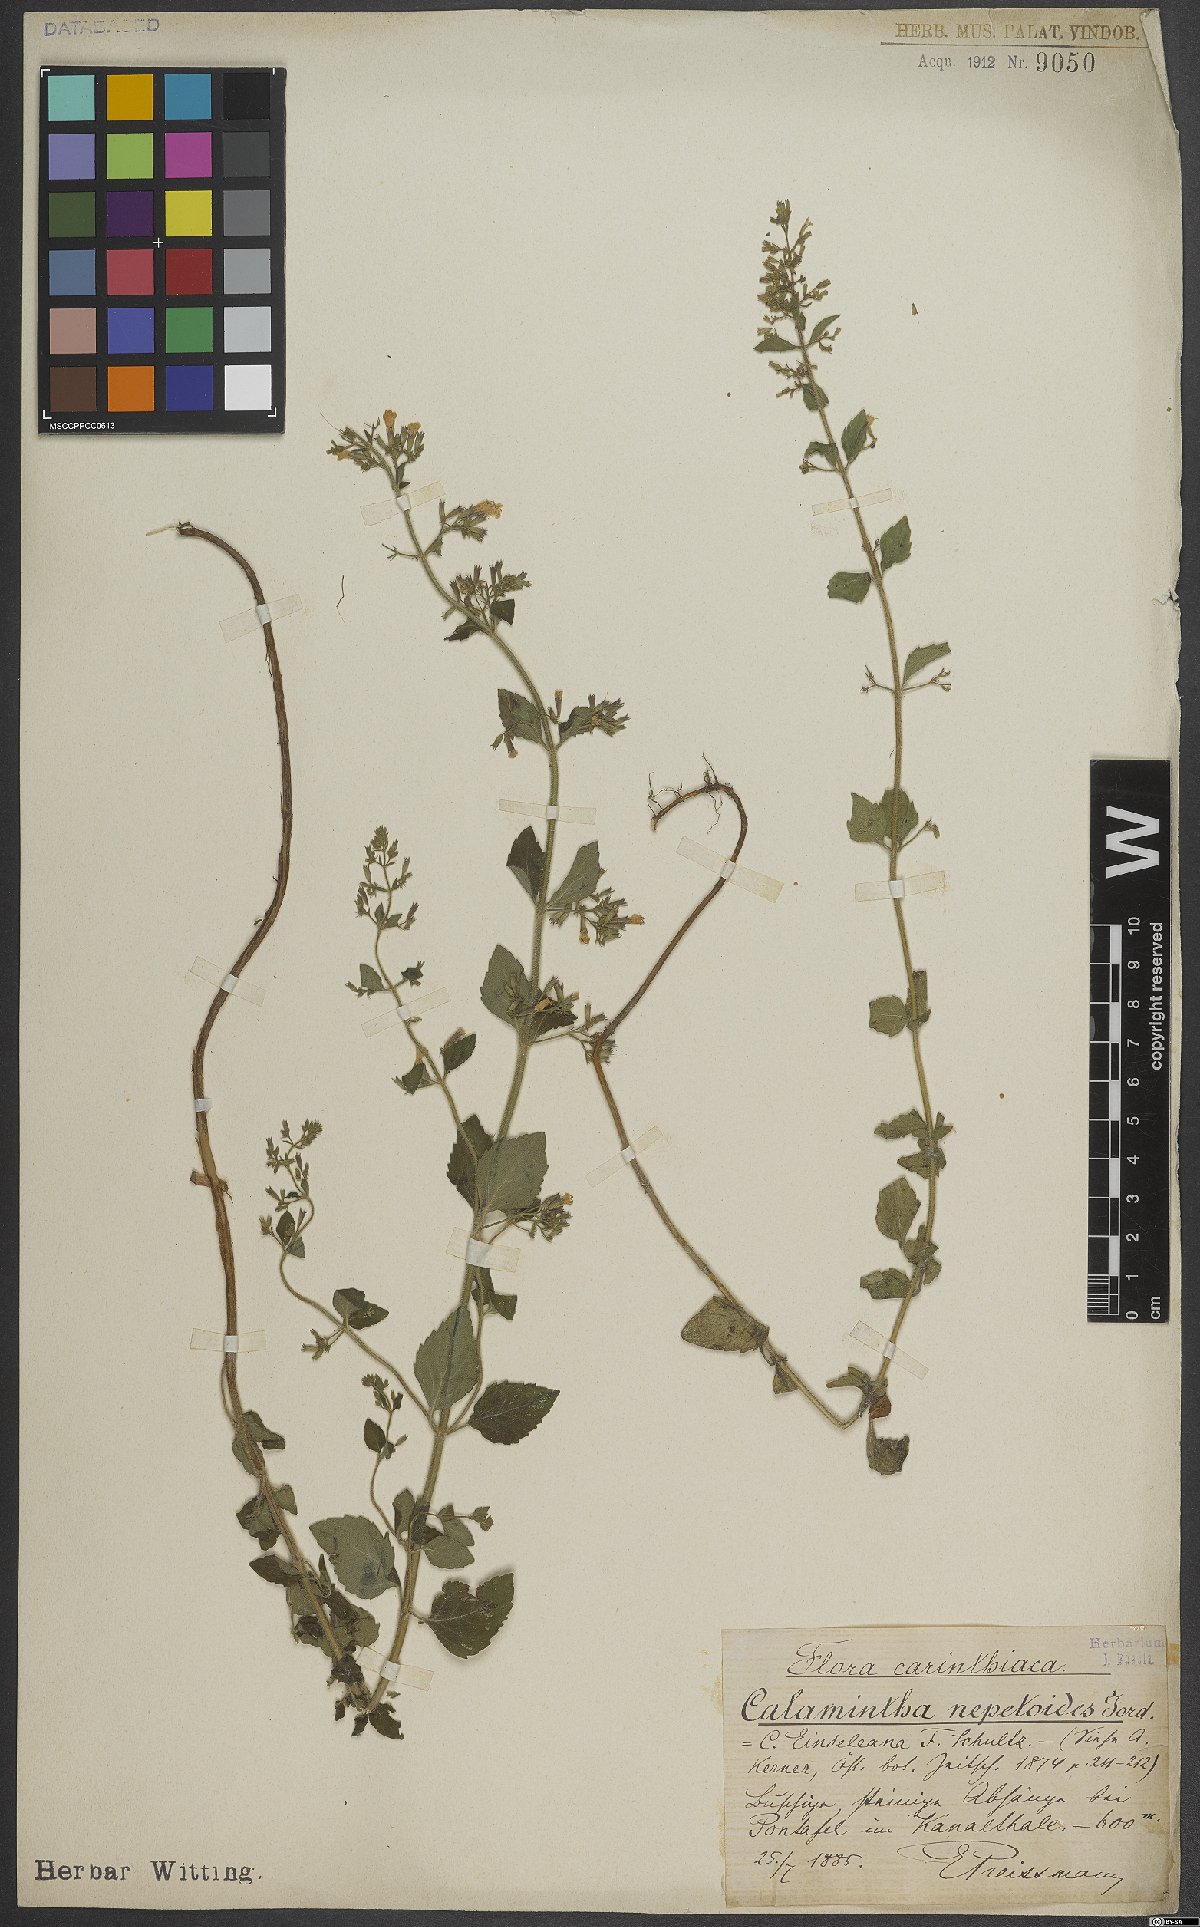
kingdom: Plantae
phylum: Tracheophyta
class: Magnoliopsida
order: Lamiales
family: Lamiaceae
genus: Clinopodium
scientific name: Clinopodium nepeta
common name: Lesser calamint
